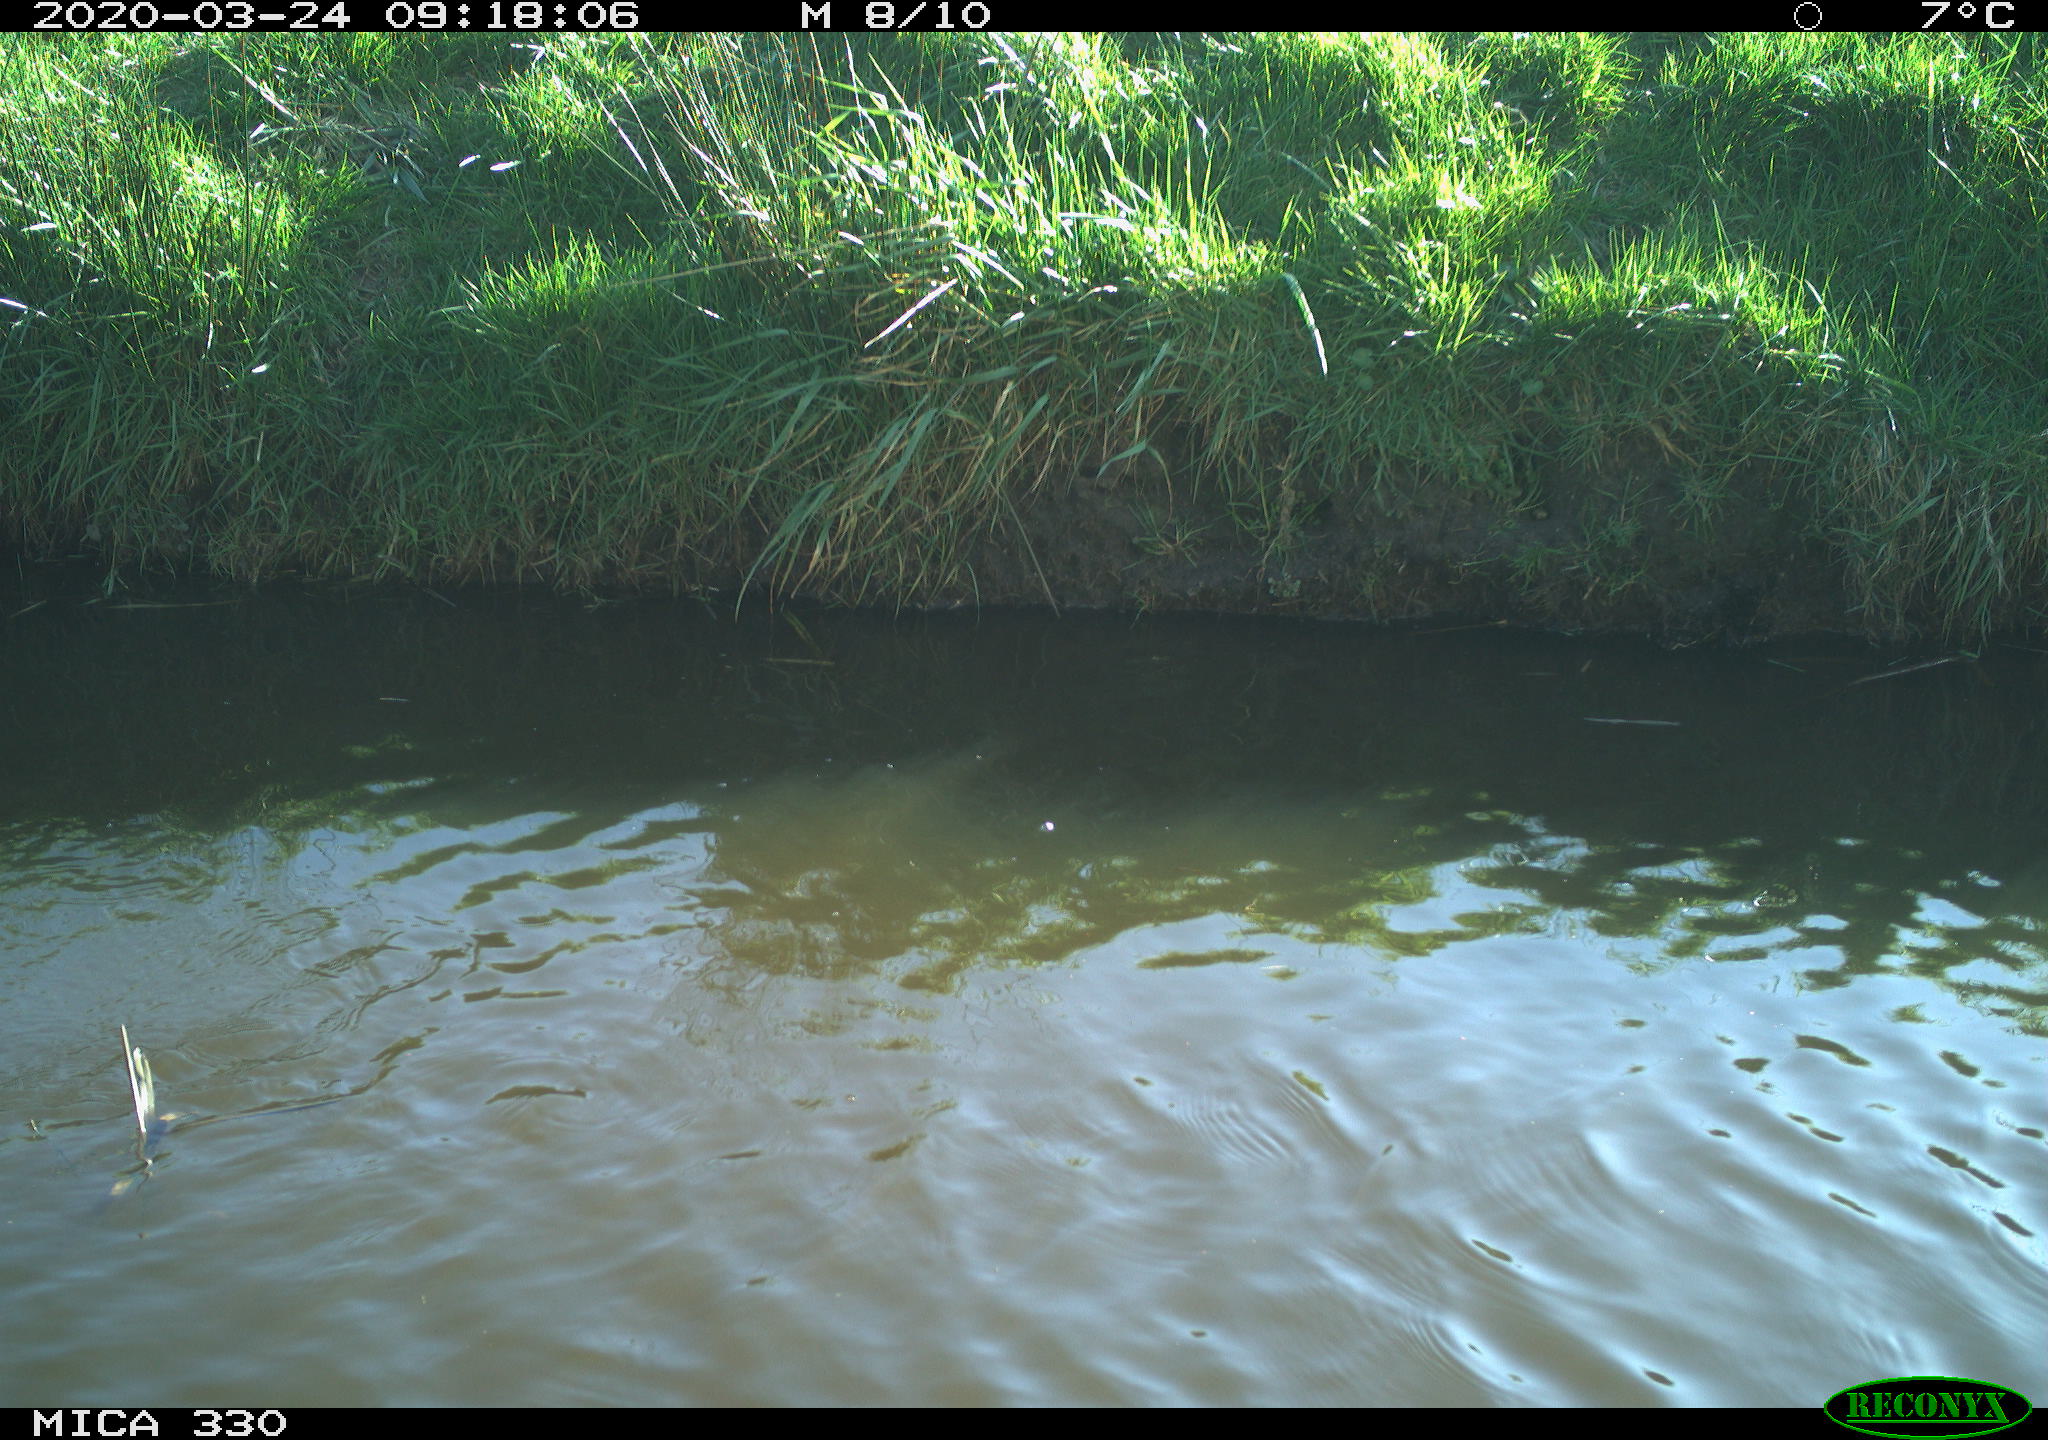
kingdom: Animalia
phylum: Chordata
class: Aves
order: Suliformes
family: Phalacrocoracidae
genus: Phalacrocorax
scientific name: Phalacrocorax carbo
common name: Great cormorant
